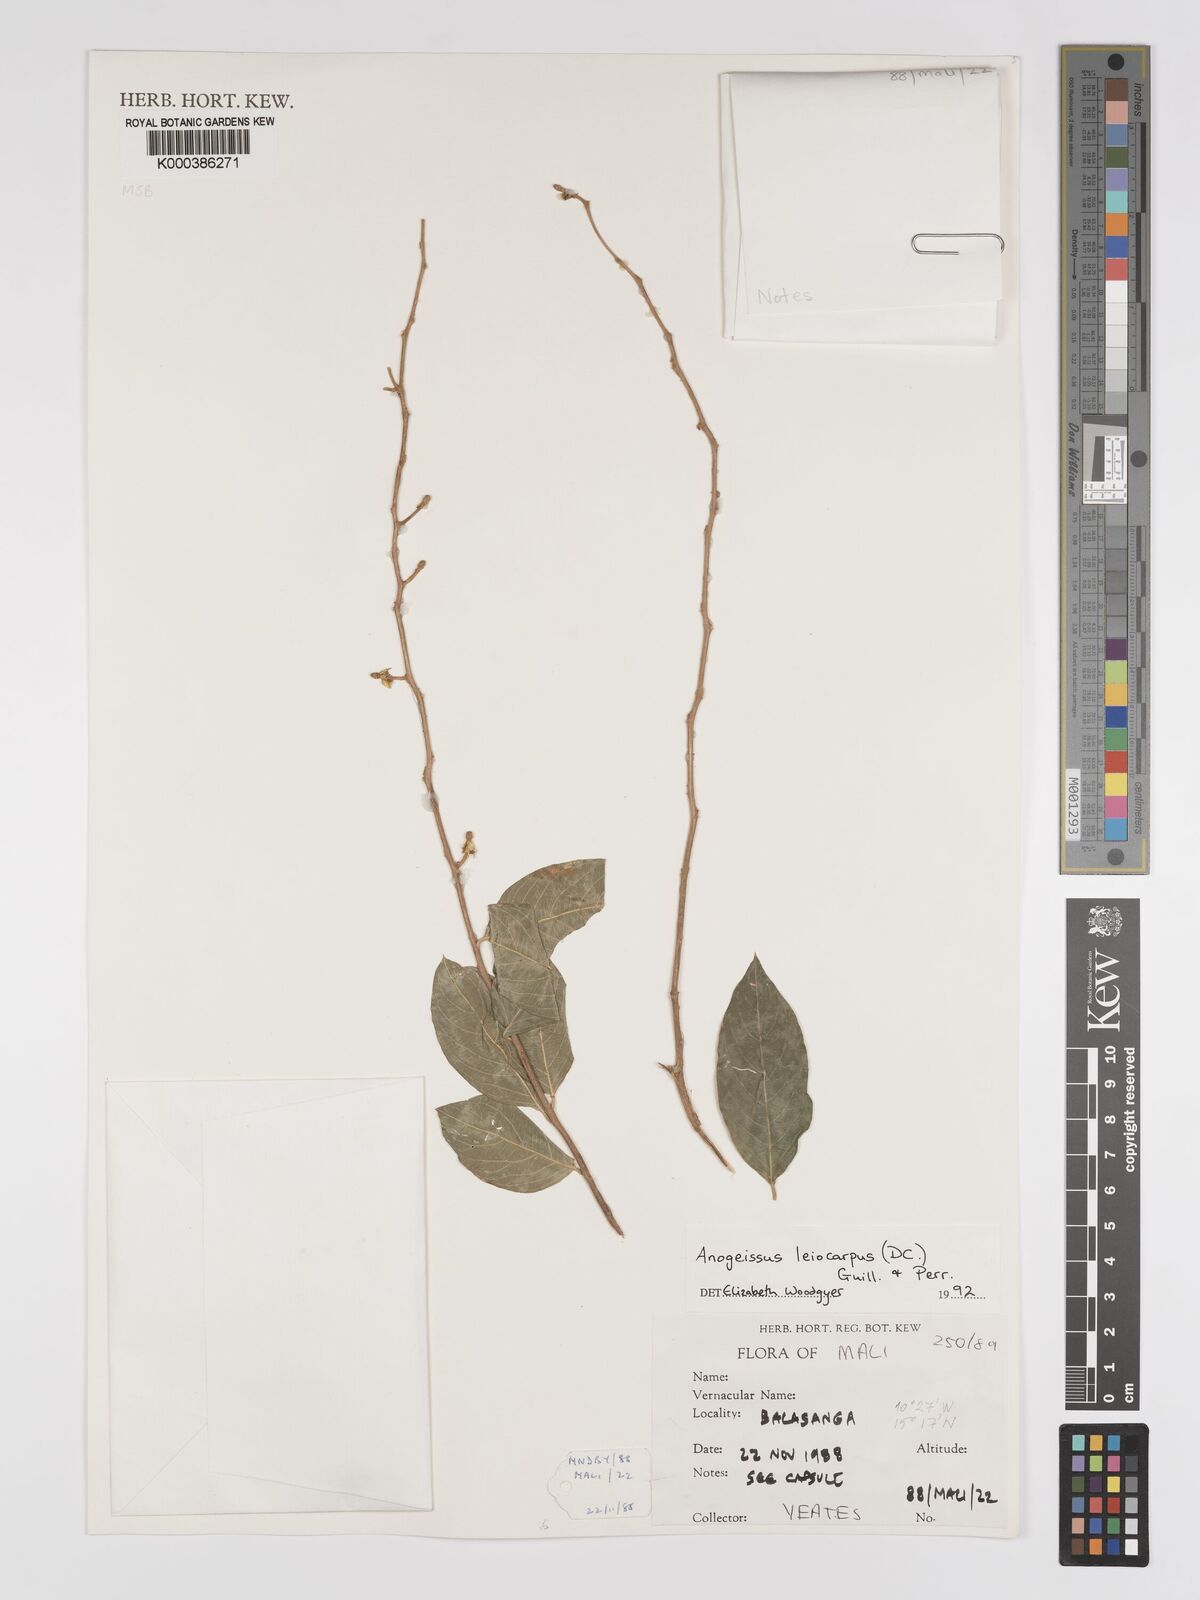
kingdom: Plantae
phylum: Tracheophyta
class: Magnoliopsida
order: Myrtales
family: Combretaceae
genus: Terminalia
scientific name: Terminalia leiocarpa
